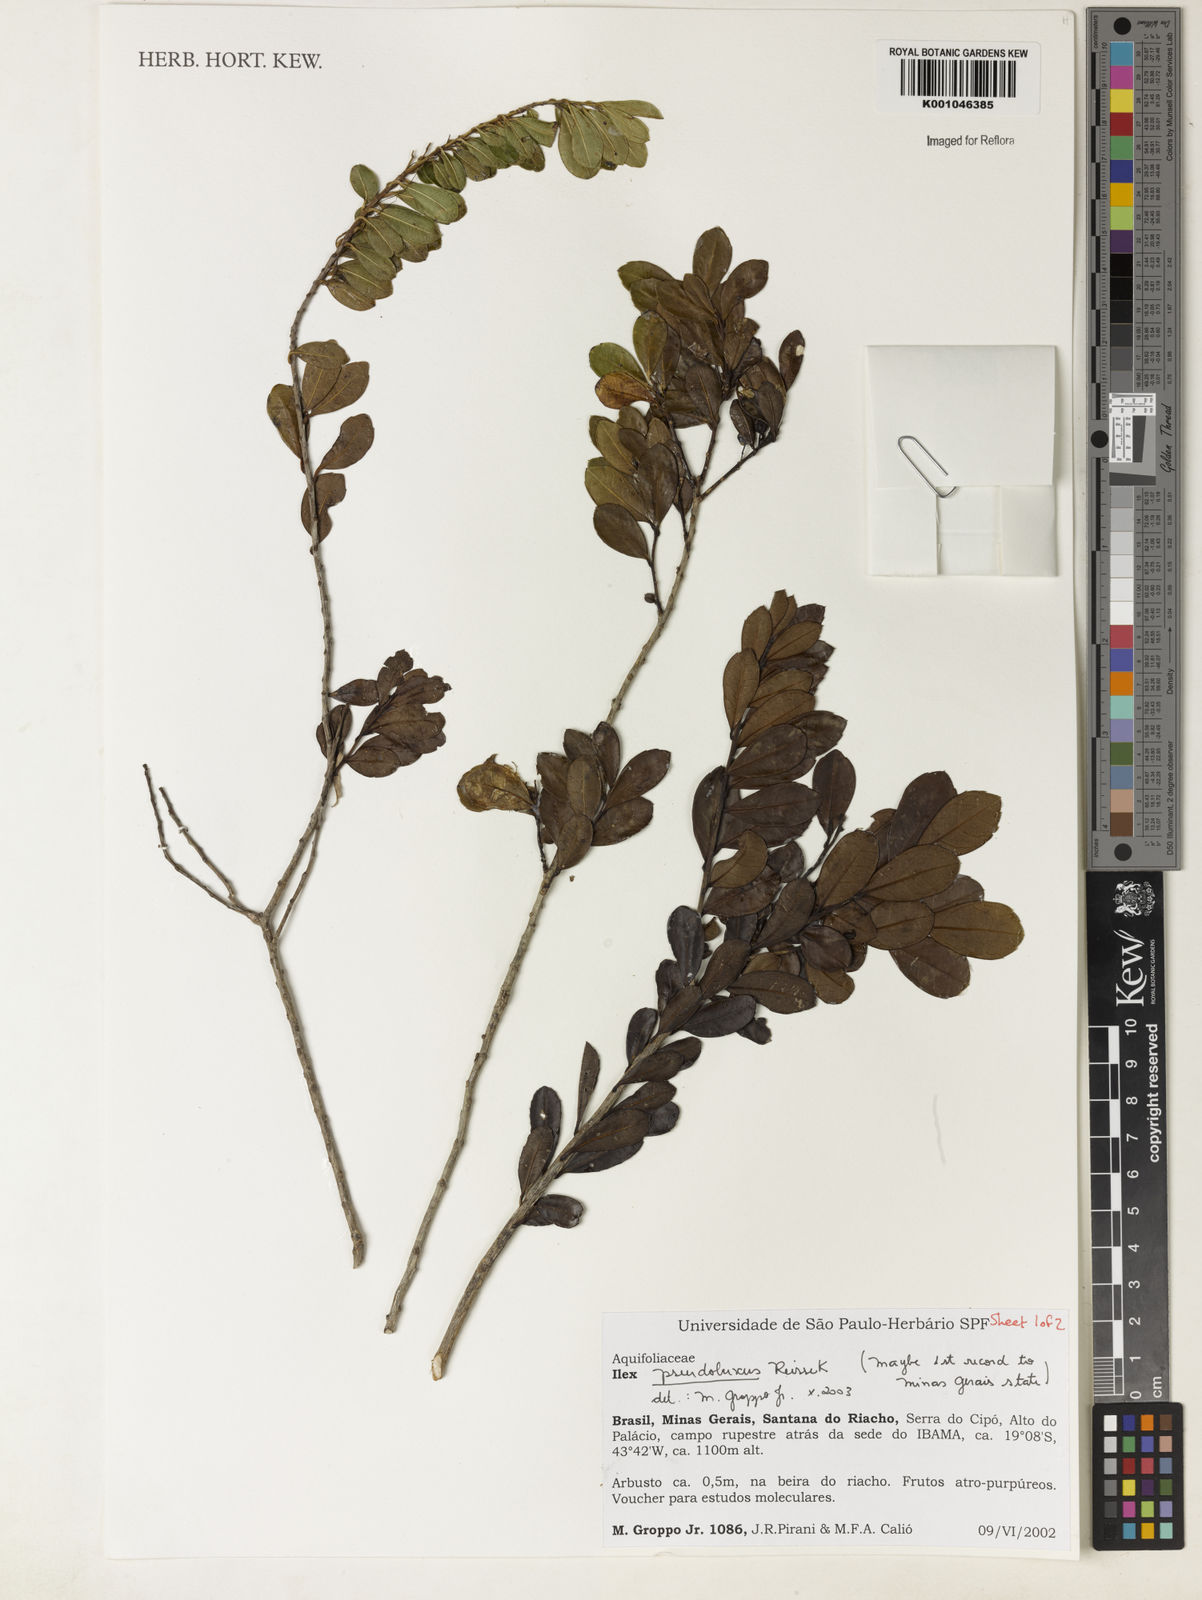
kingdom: Plantae
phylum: Tracheophyta
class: Magnoliopsida
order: Aquifoliales
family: Aquifoliaceae
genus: Ilex
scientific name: Ilex pseudobuxus
